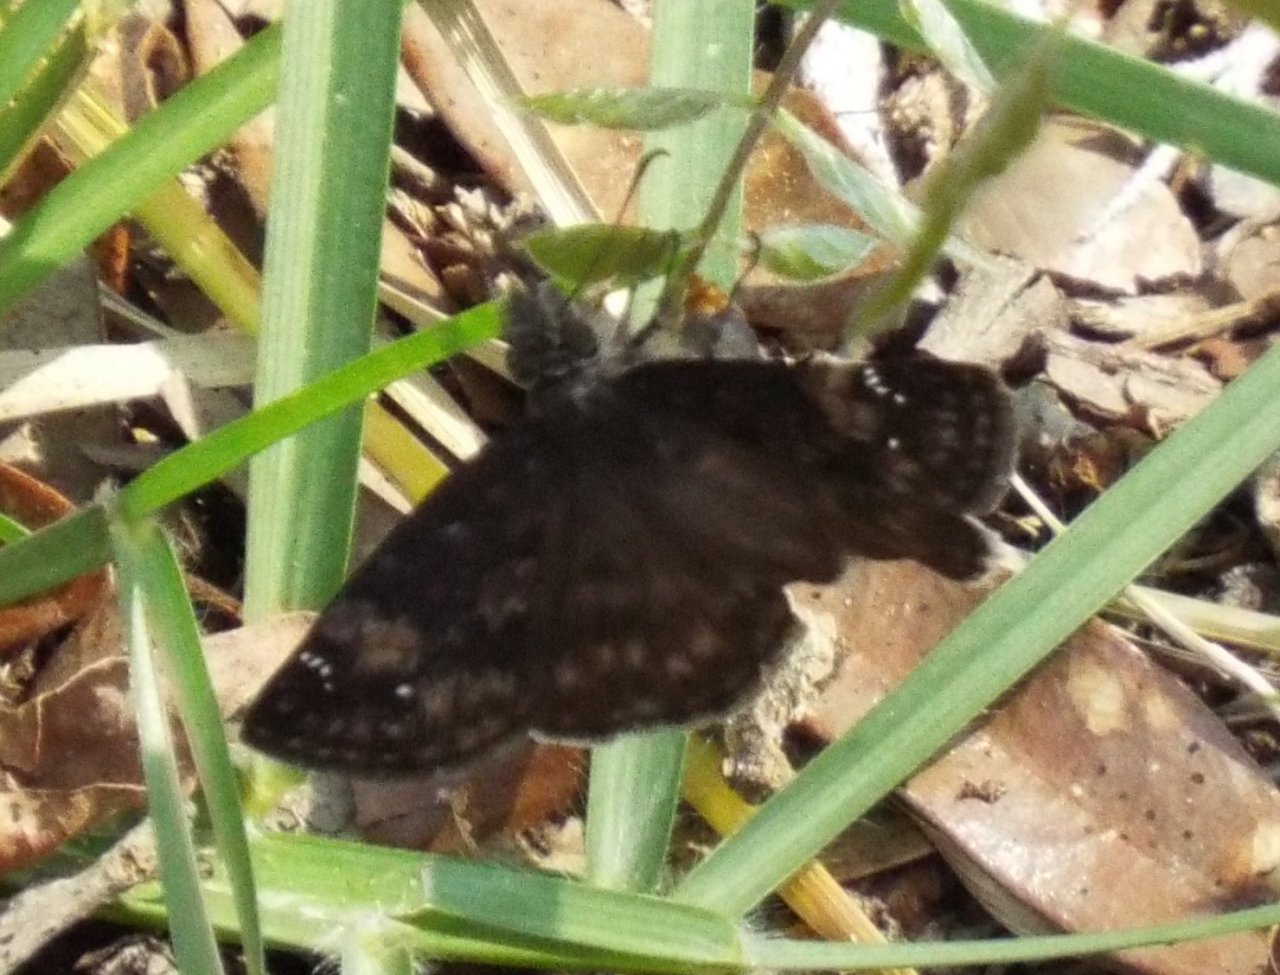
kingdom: Animalia
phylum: Arthropoda
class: Insecta
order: Lepidoptera
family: Hesperiidae
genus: Erynnis
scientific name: Erynnis
